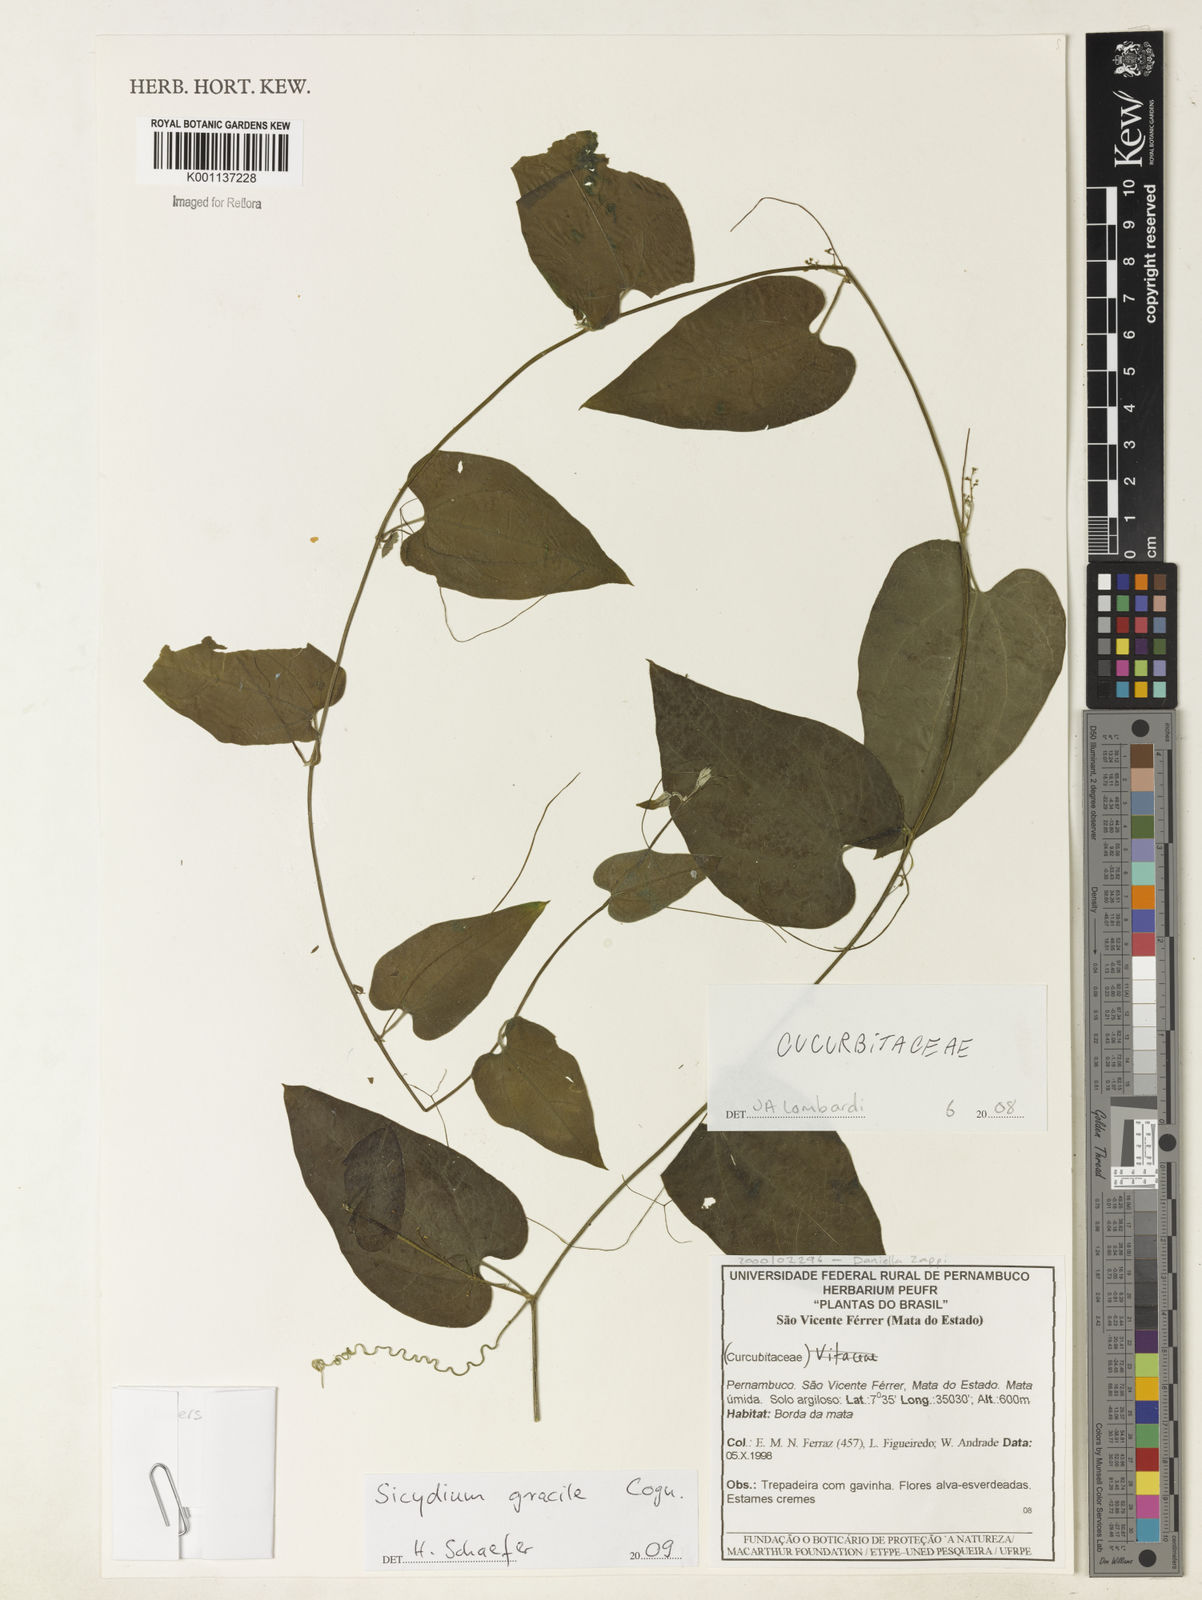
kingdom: Plantae
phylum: Tracheophyta
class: Magnoliopsida
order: Cucurbitales
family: Cucurbitaceae
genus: Sicydium
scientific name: Sicydium gracile
